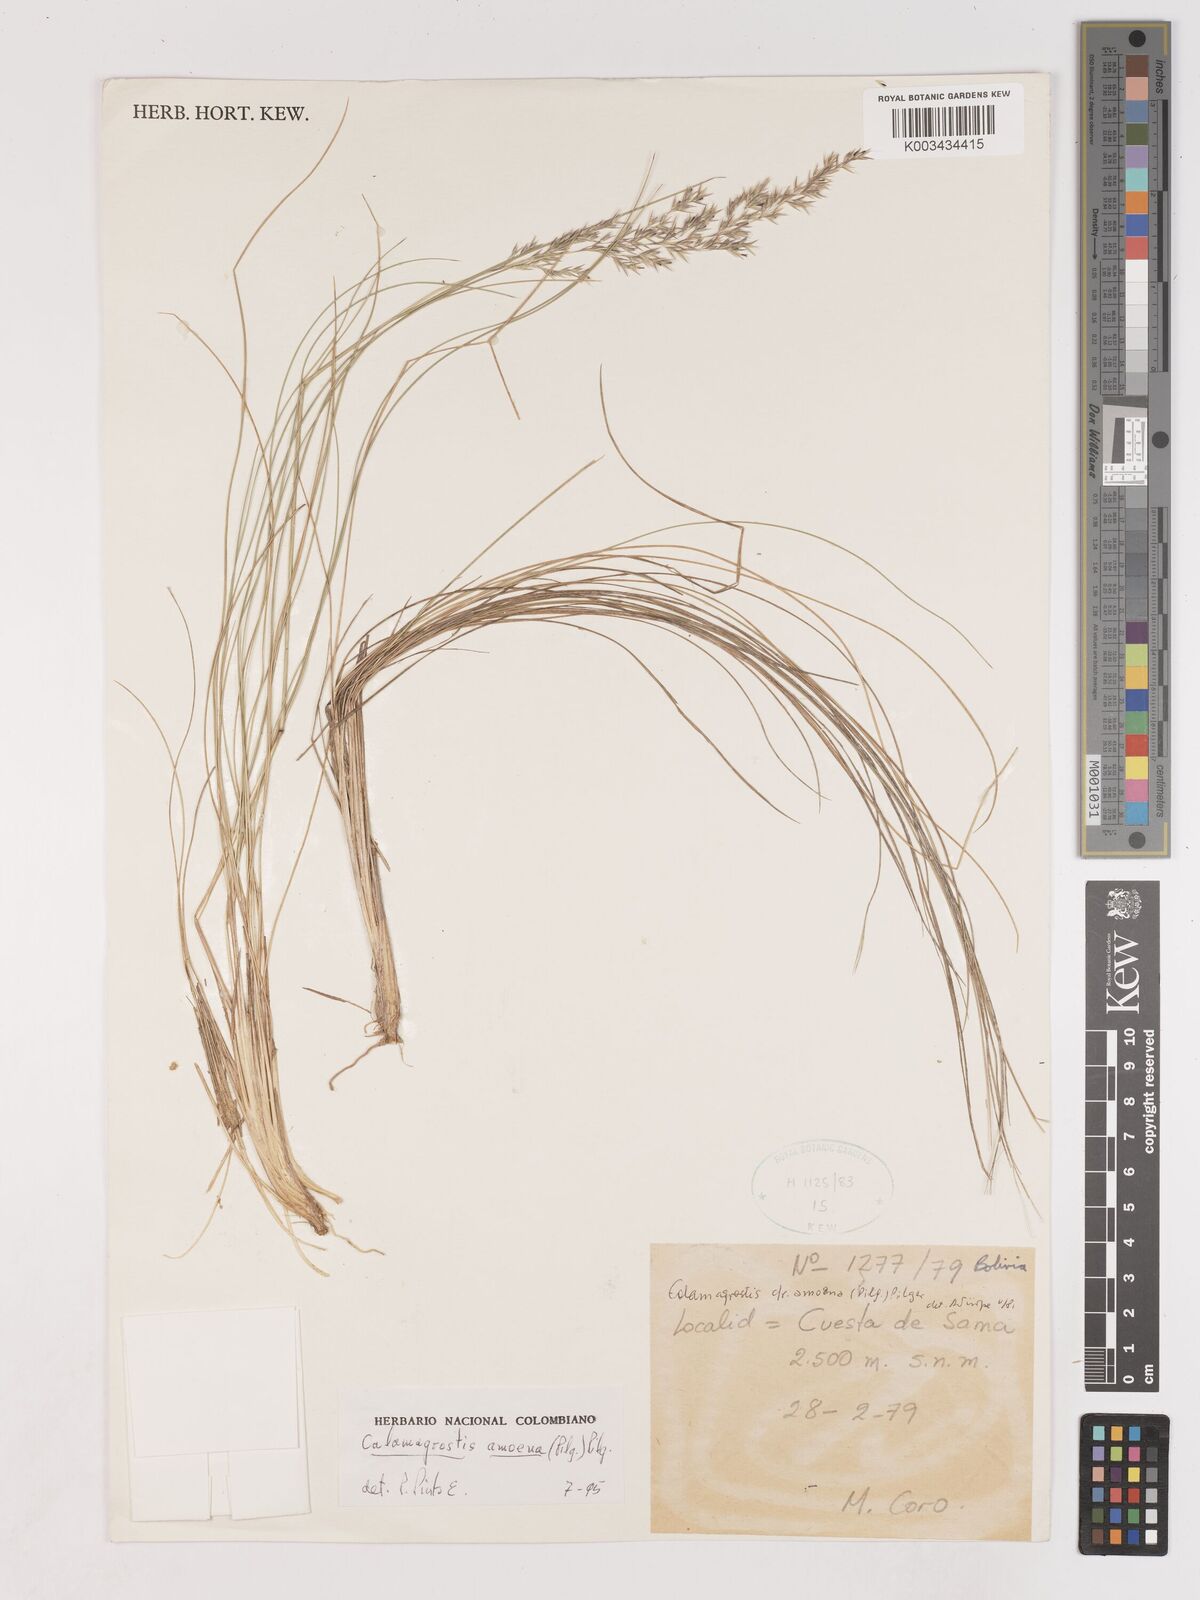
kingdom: Plantae
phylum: Tracheophyta
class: Liliopsida
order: Poales
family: Poaceae
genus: Cinnagrostis
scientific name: Cinnagrostis filifolia
